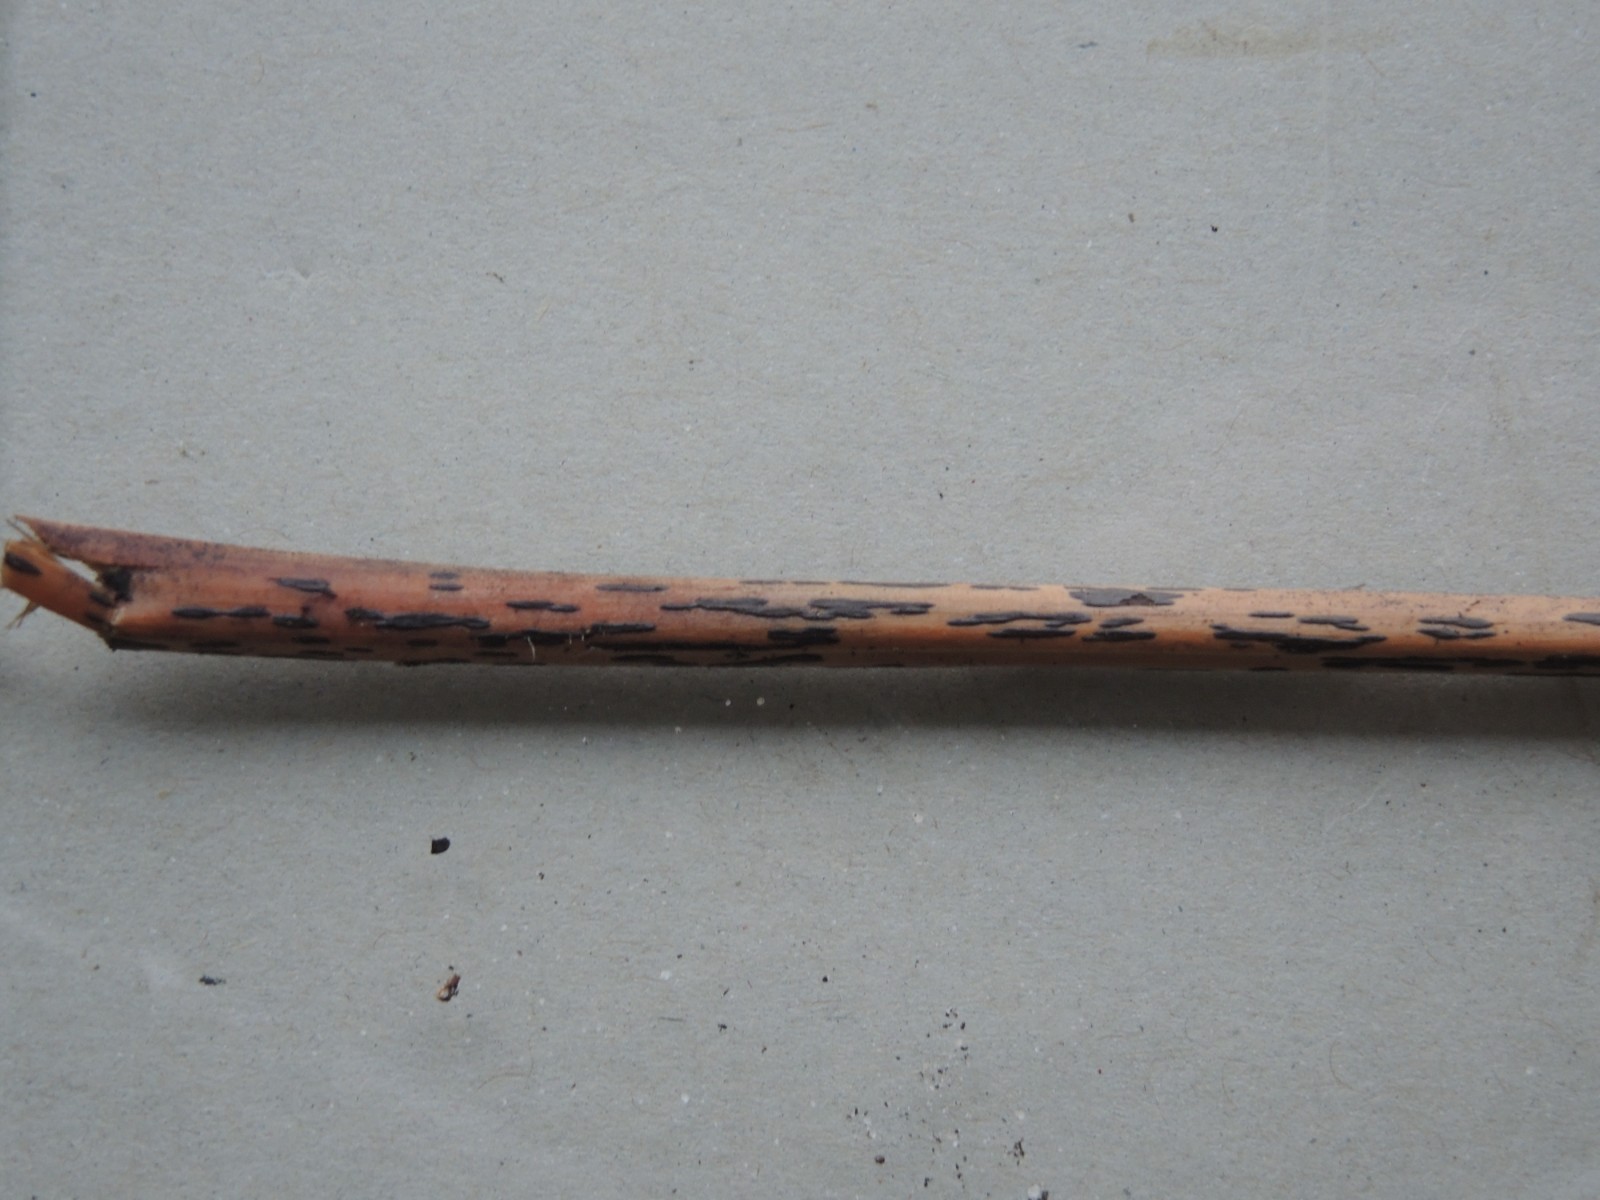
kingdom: Fungi
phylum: Ascomycota
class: Dothideomycetes
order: Pleosporales
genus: Rhopographus
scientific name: Rhopographus filicinus
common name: Bracken map
